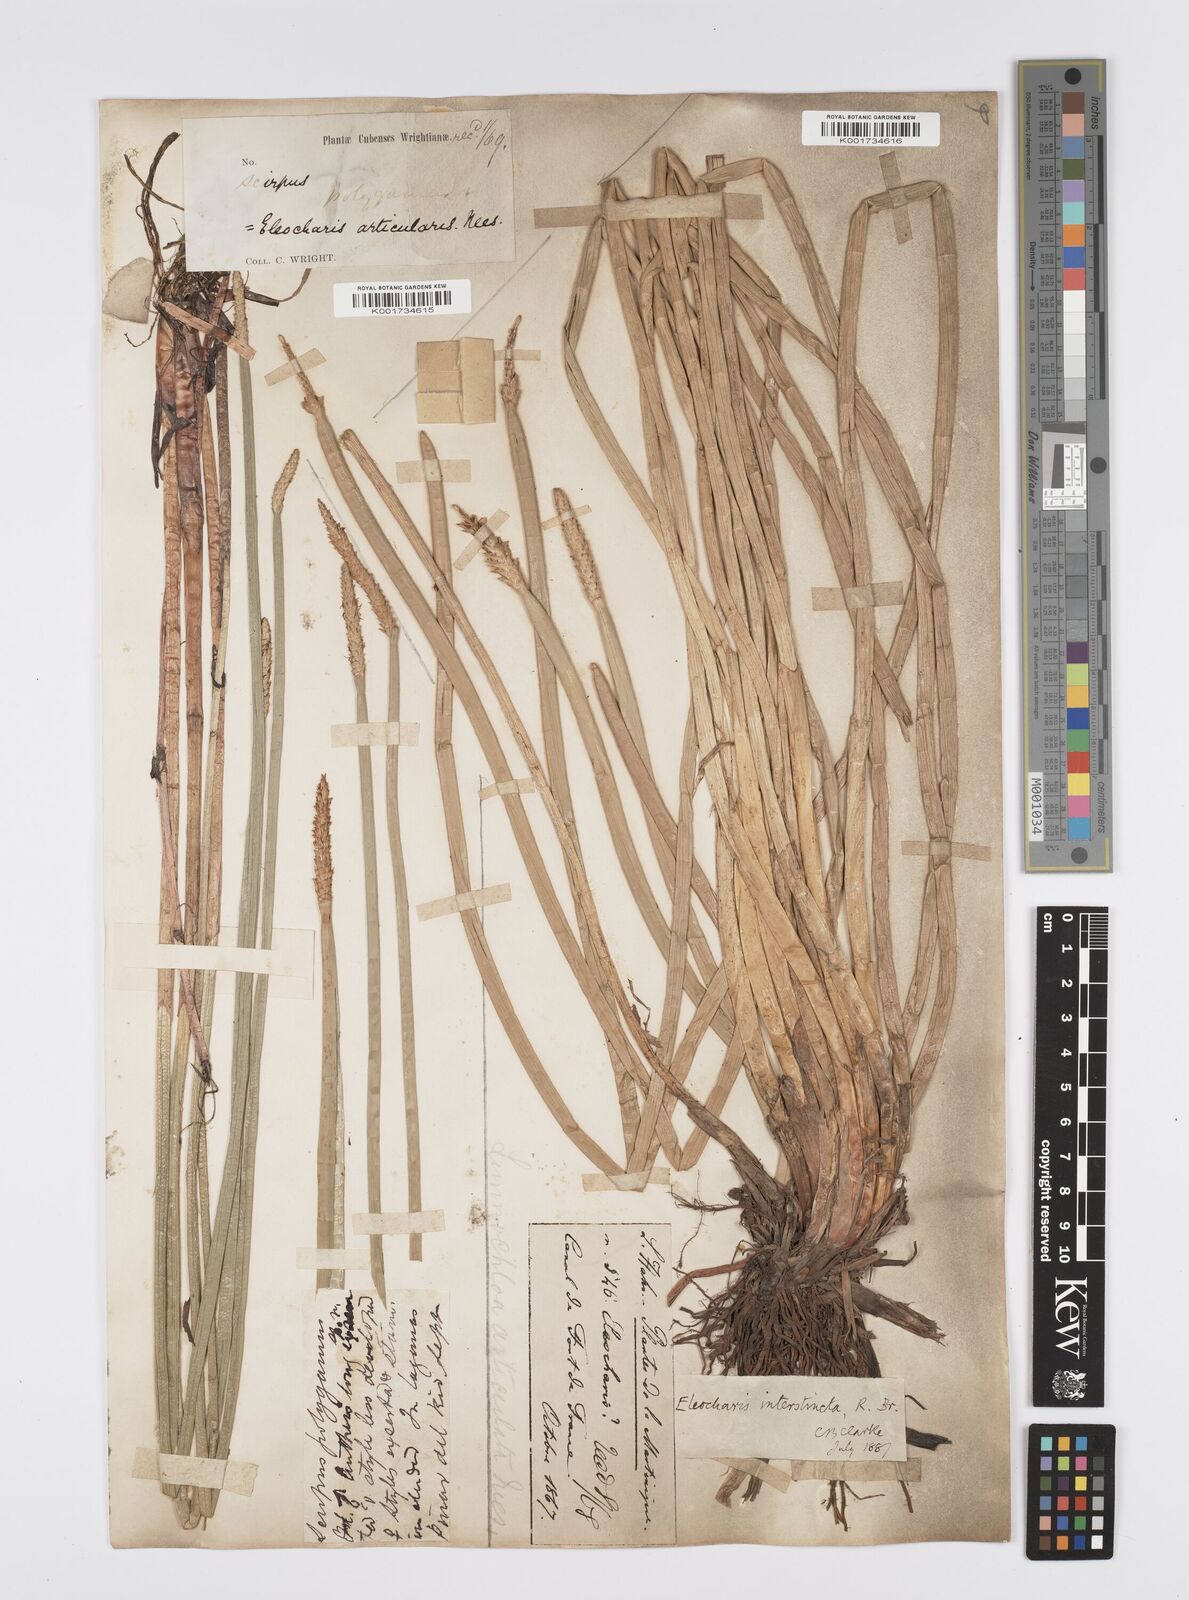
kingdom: Plantae
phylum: Tracheophyta
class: Liliopsida
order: Poales
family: Cyperaceae
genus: Eleocharis
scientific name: Eleocharis interstincta
